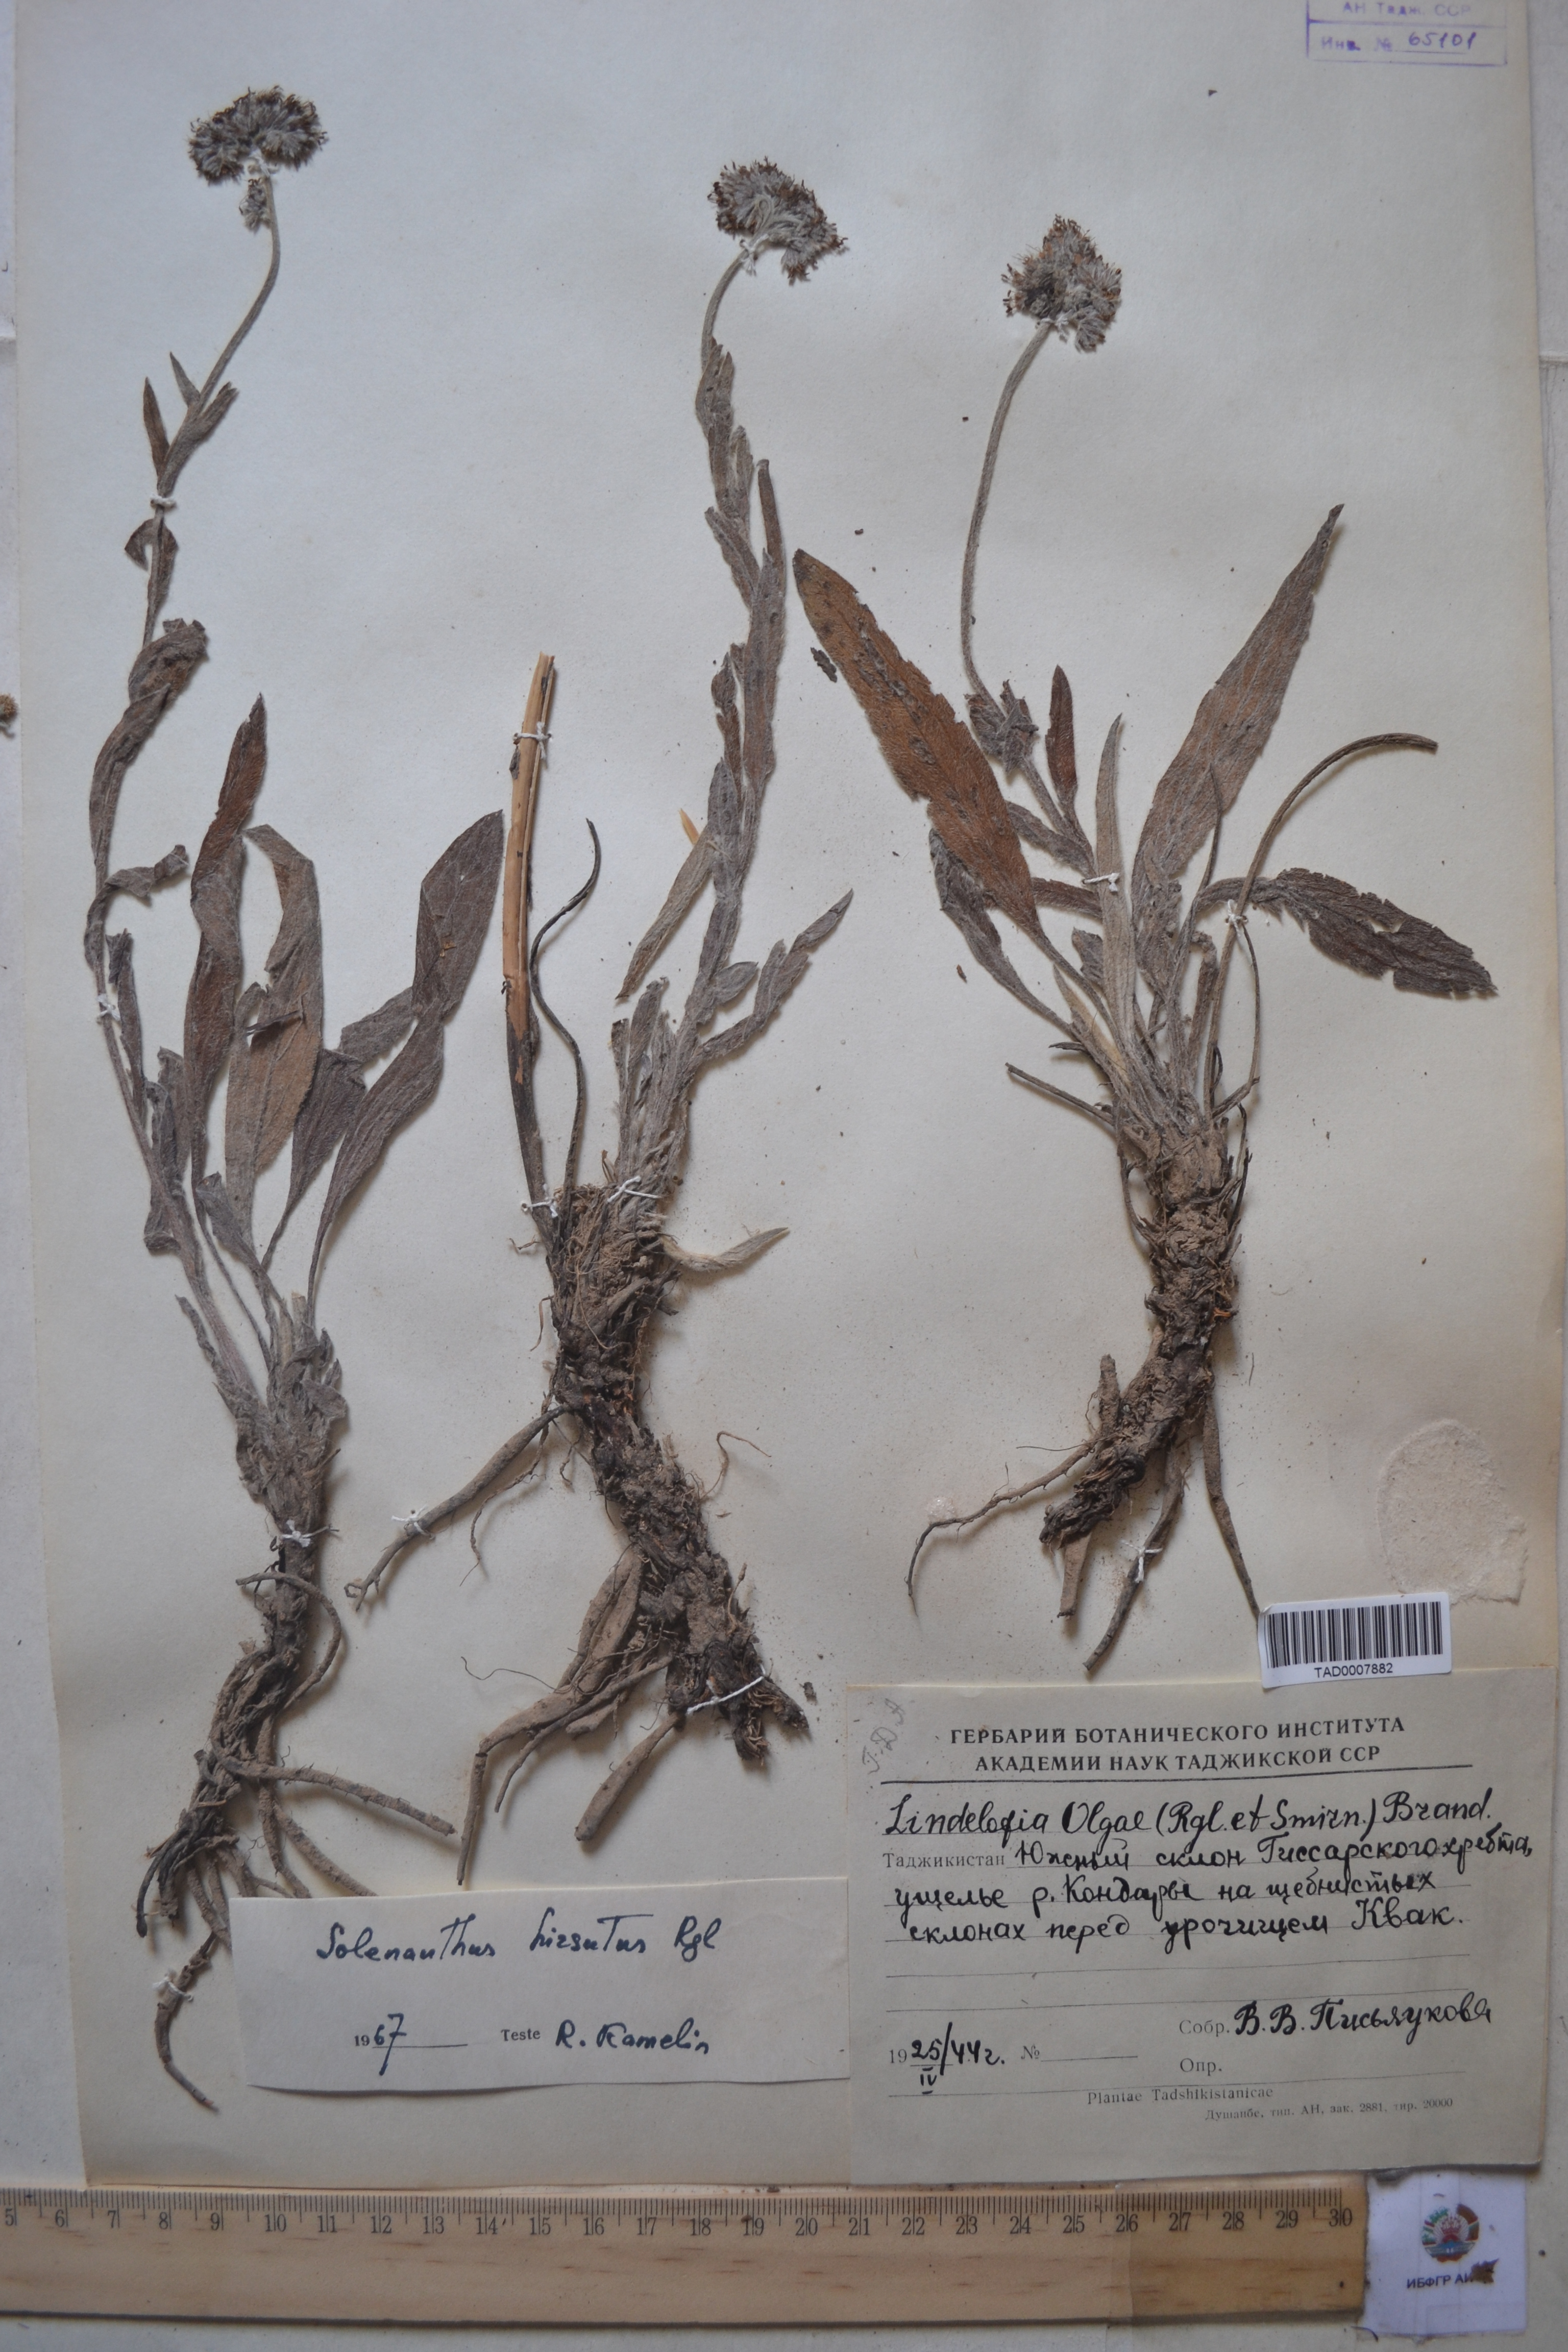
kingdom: Plantae
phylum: Tracheophyta
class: Magnoliopsida
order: Boraginales
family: Boraginaceae
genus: Solenanthus
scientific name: Solenanthus hirsutus
